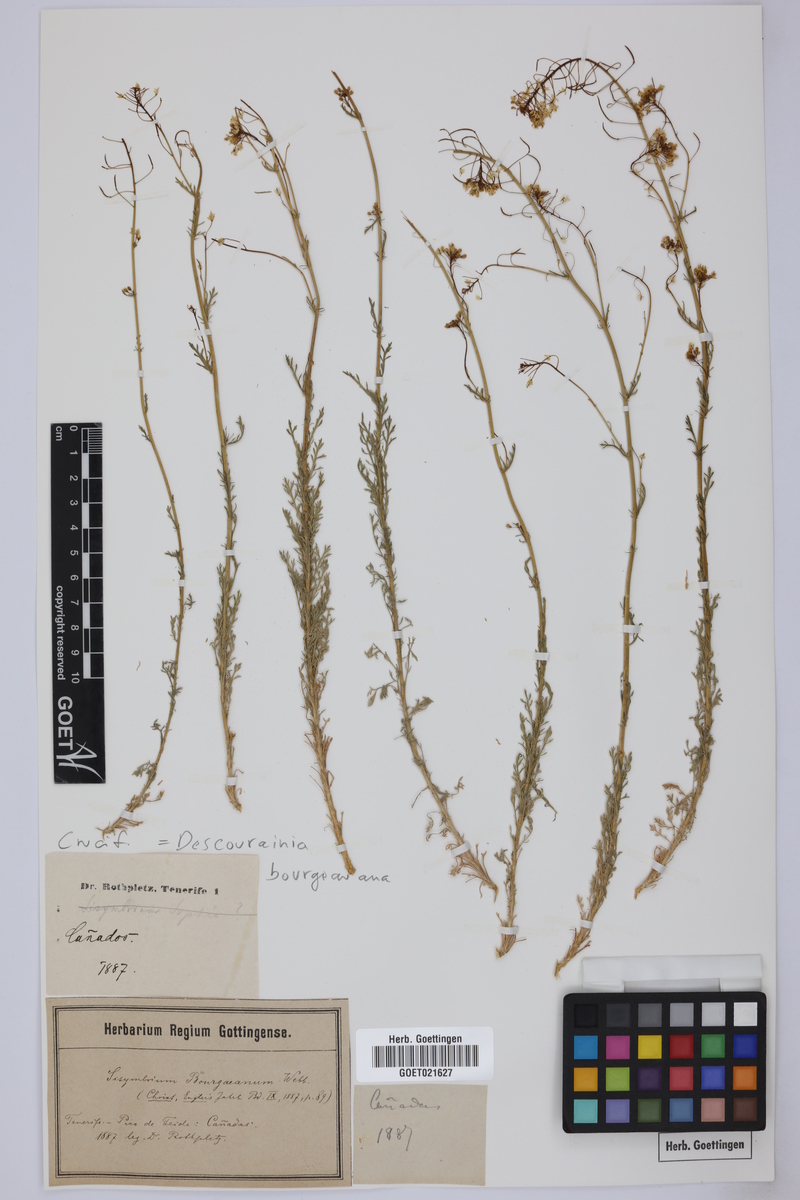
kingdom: Plantae
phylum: Tracheophyta
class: Magnoliopsida
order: Brassicales
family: Brassicaceae
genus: Descurainia
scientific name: Descurainia bourgaeana
